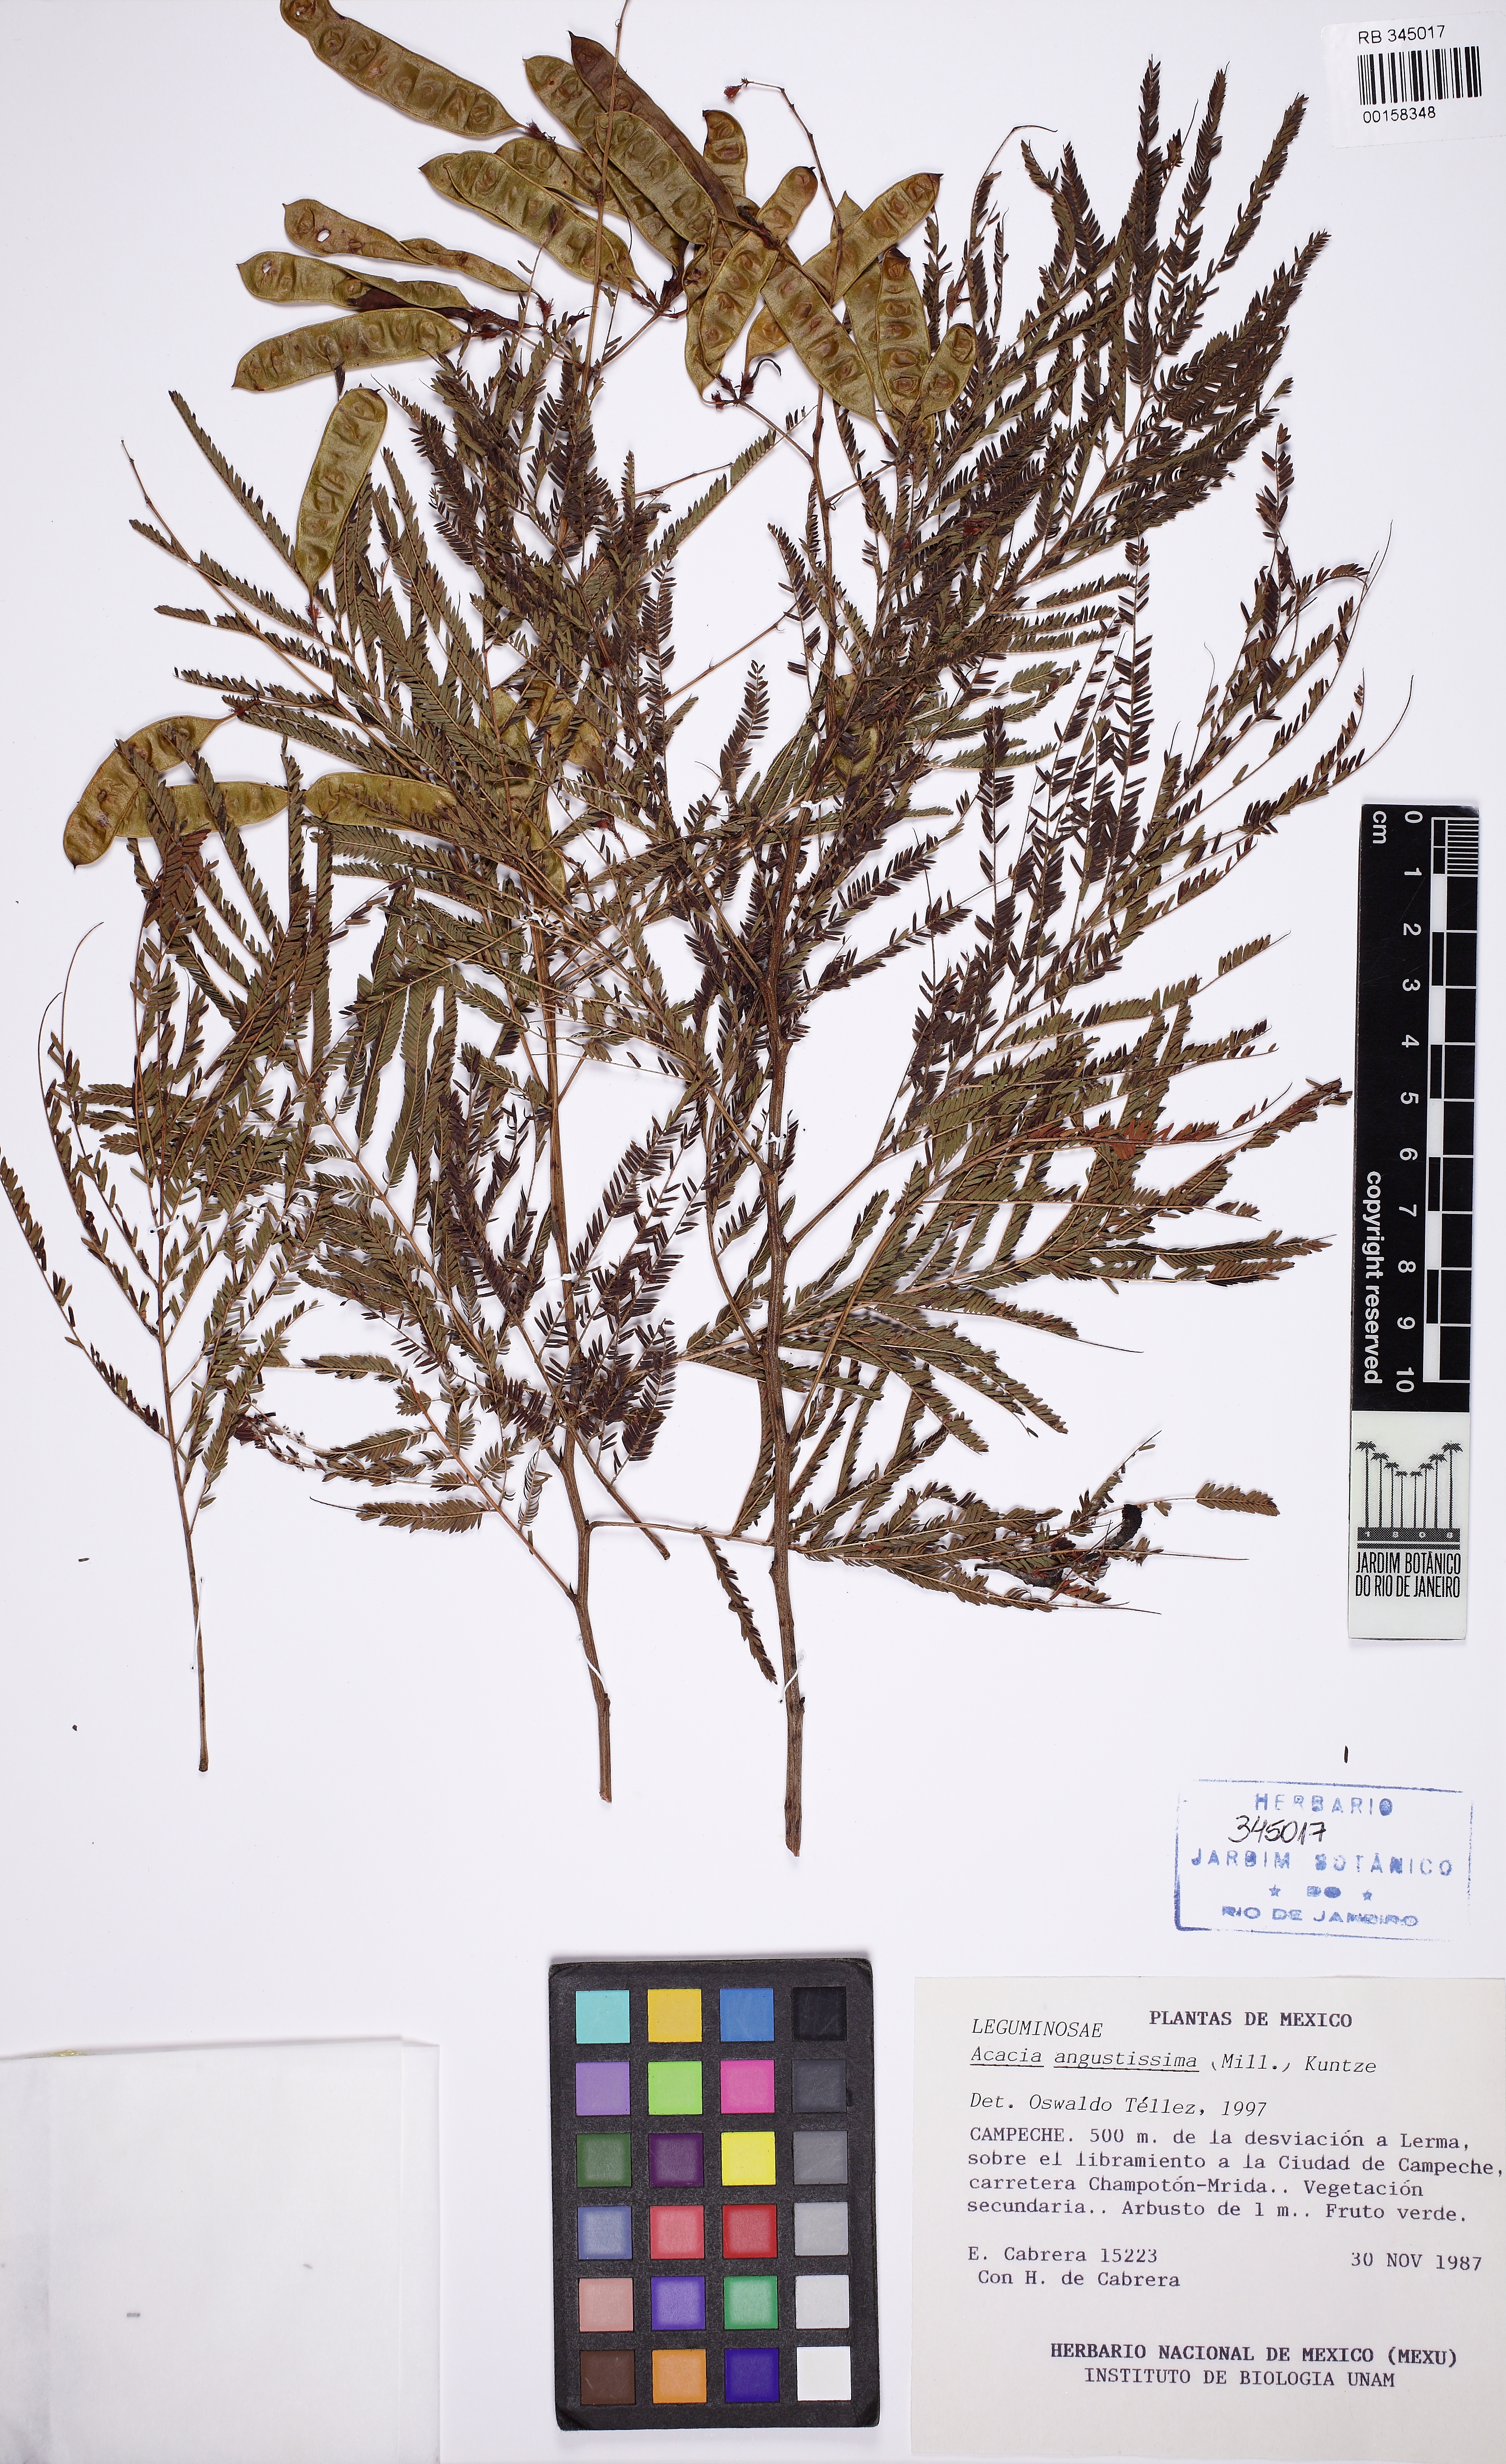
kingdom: Plantae
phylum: Tracheophyta
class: Magnoliopsida
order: Fabales
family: Fabaceae
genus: Acaciella
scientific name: Acaciella angustissima
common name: Prairie acacia
